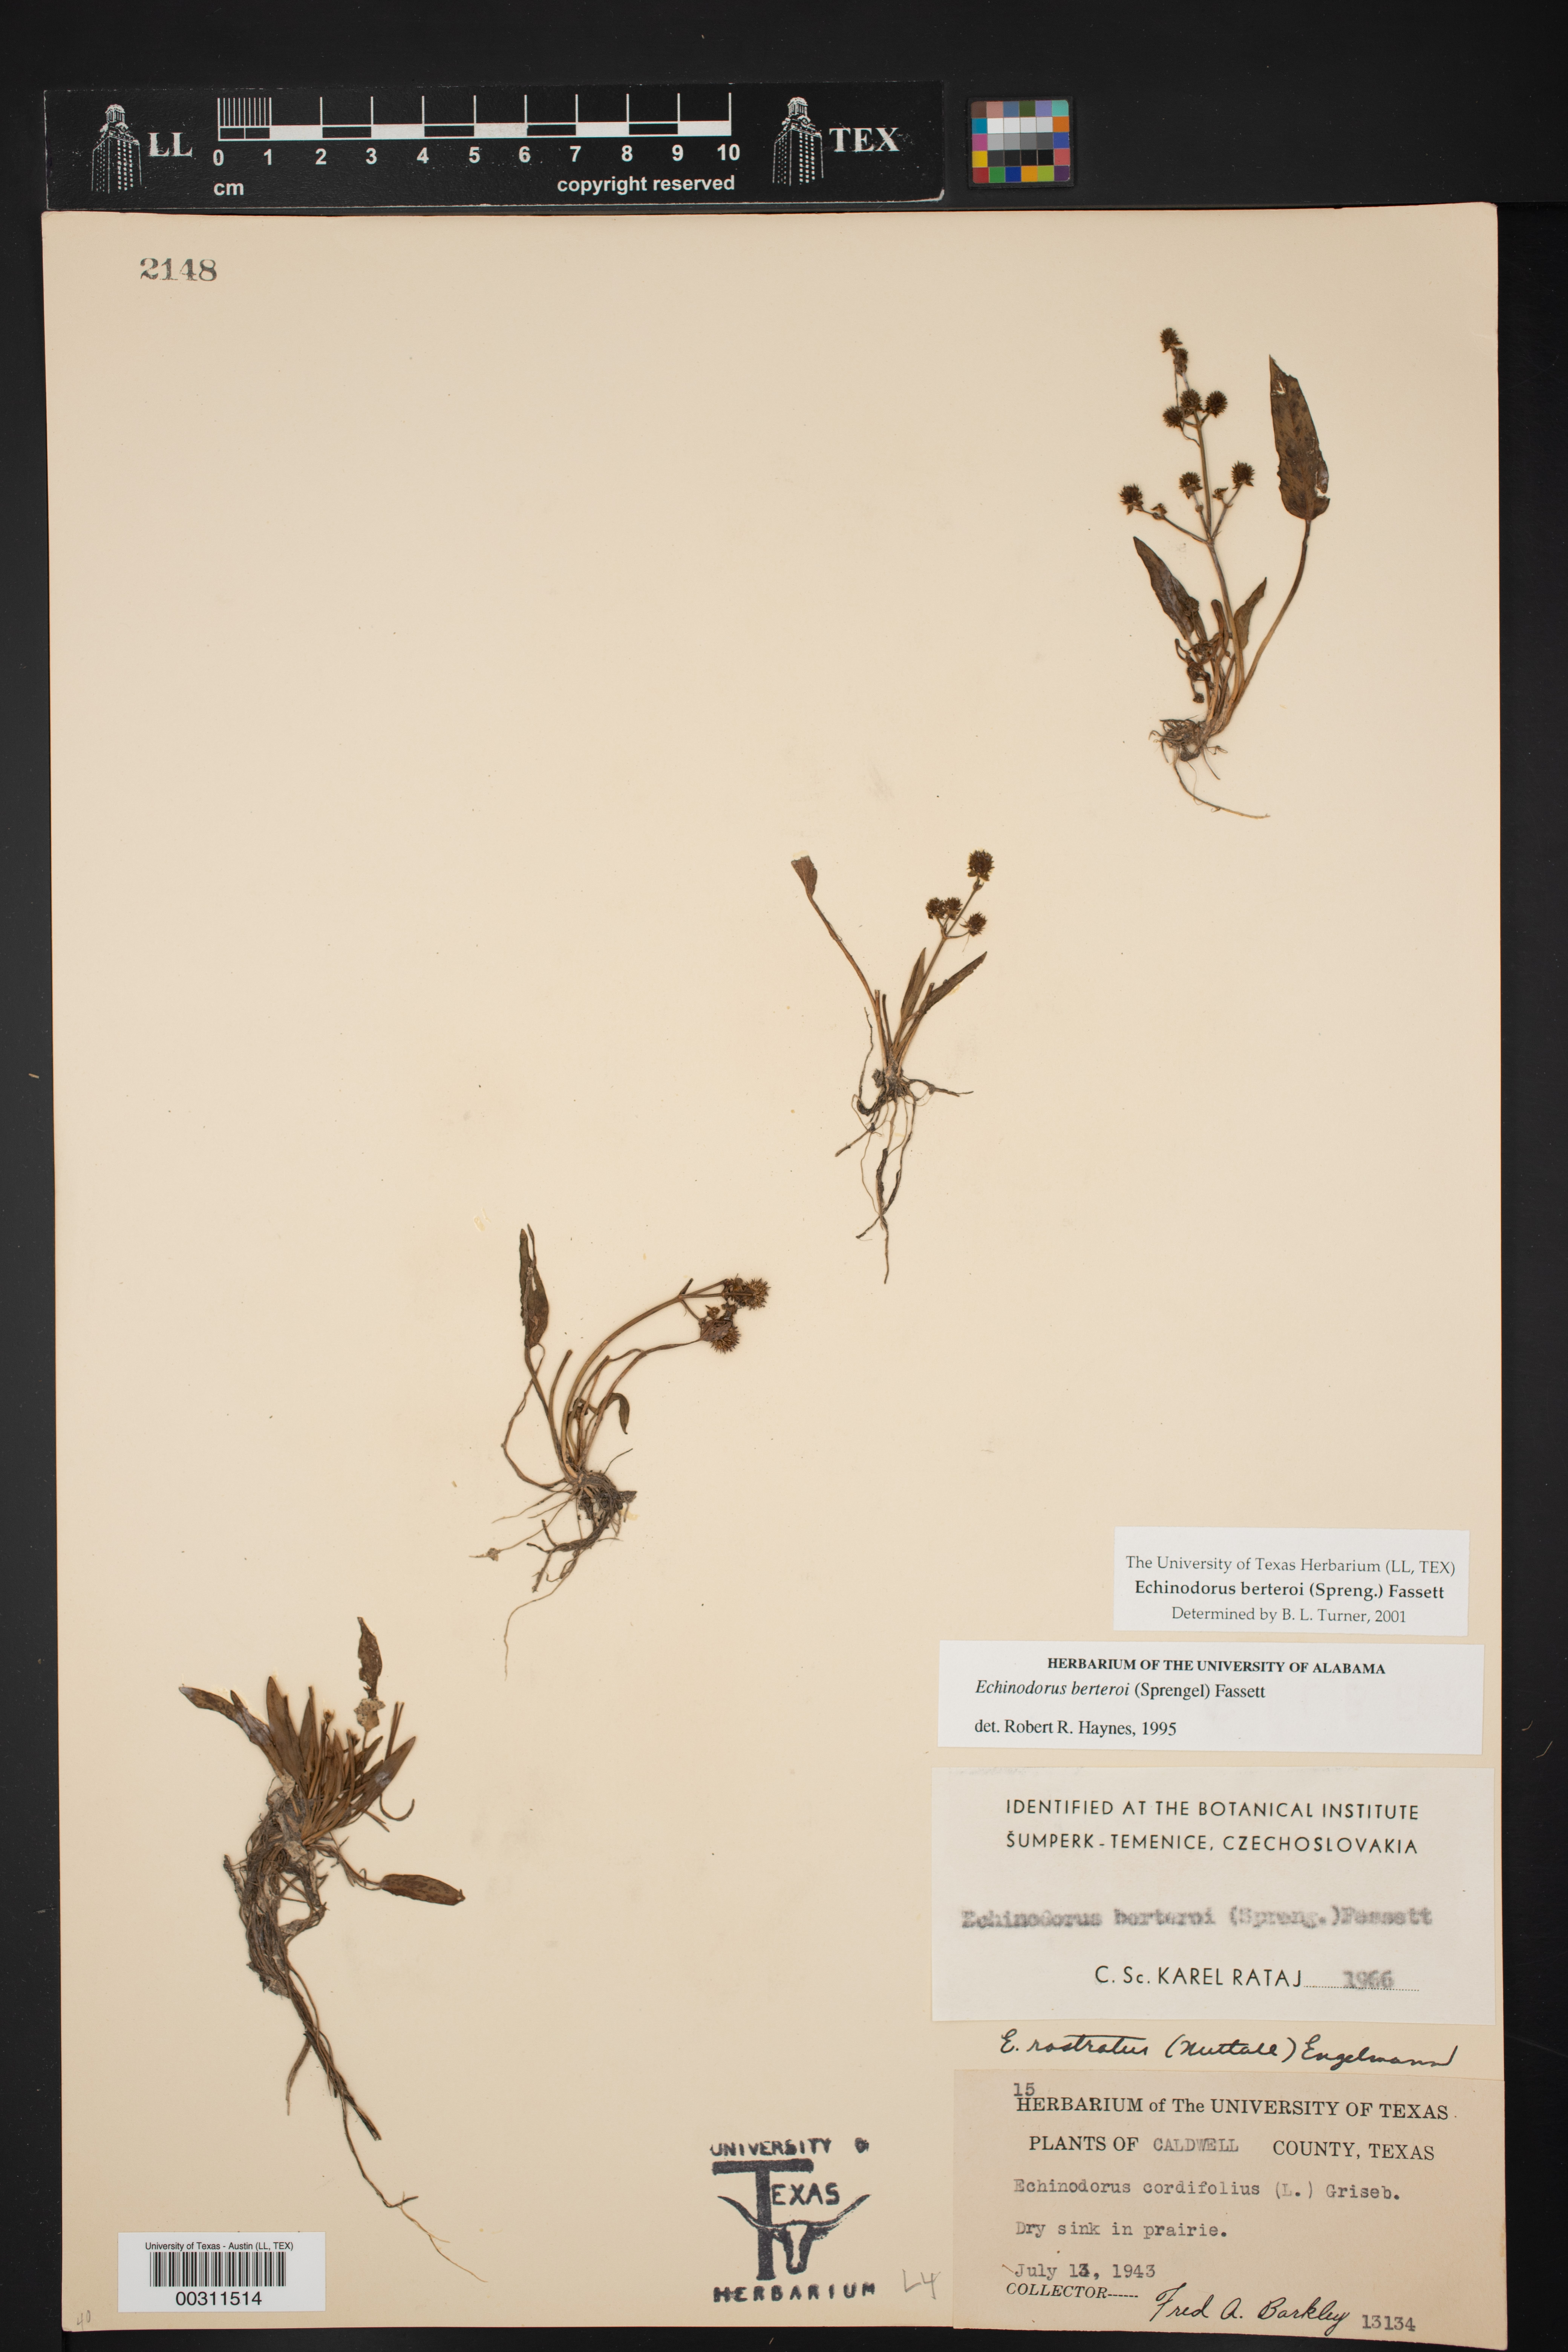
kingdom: Plantae
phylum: Tracheophyta
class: Liliopsida
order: Alismatales
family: Alismataceae
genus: Echinodorus
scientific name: Echinodorus berteroi
